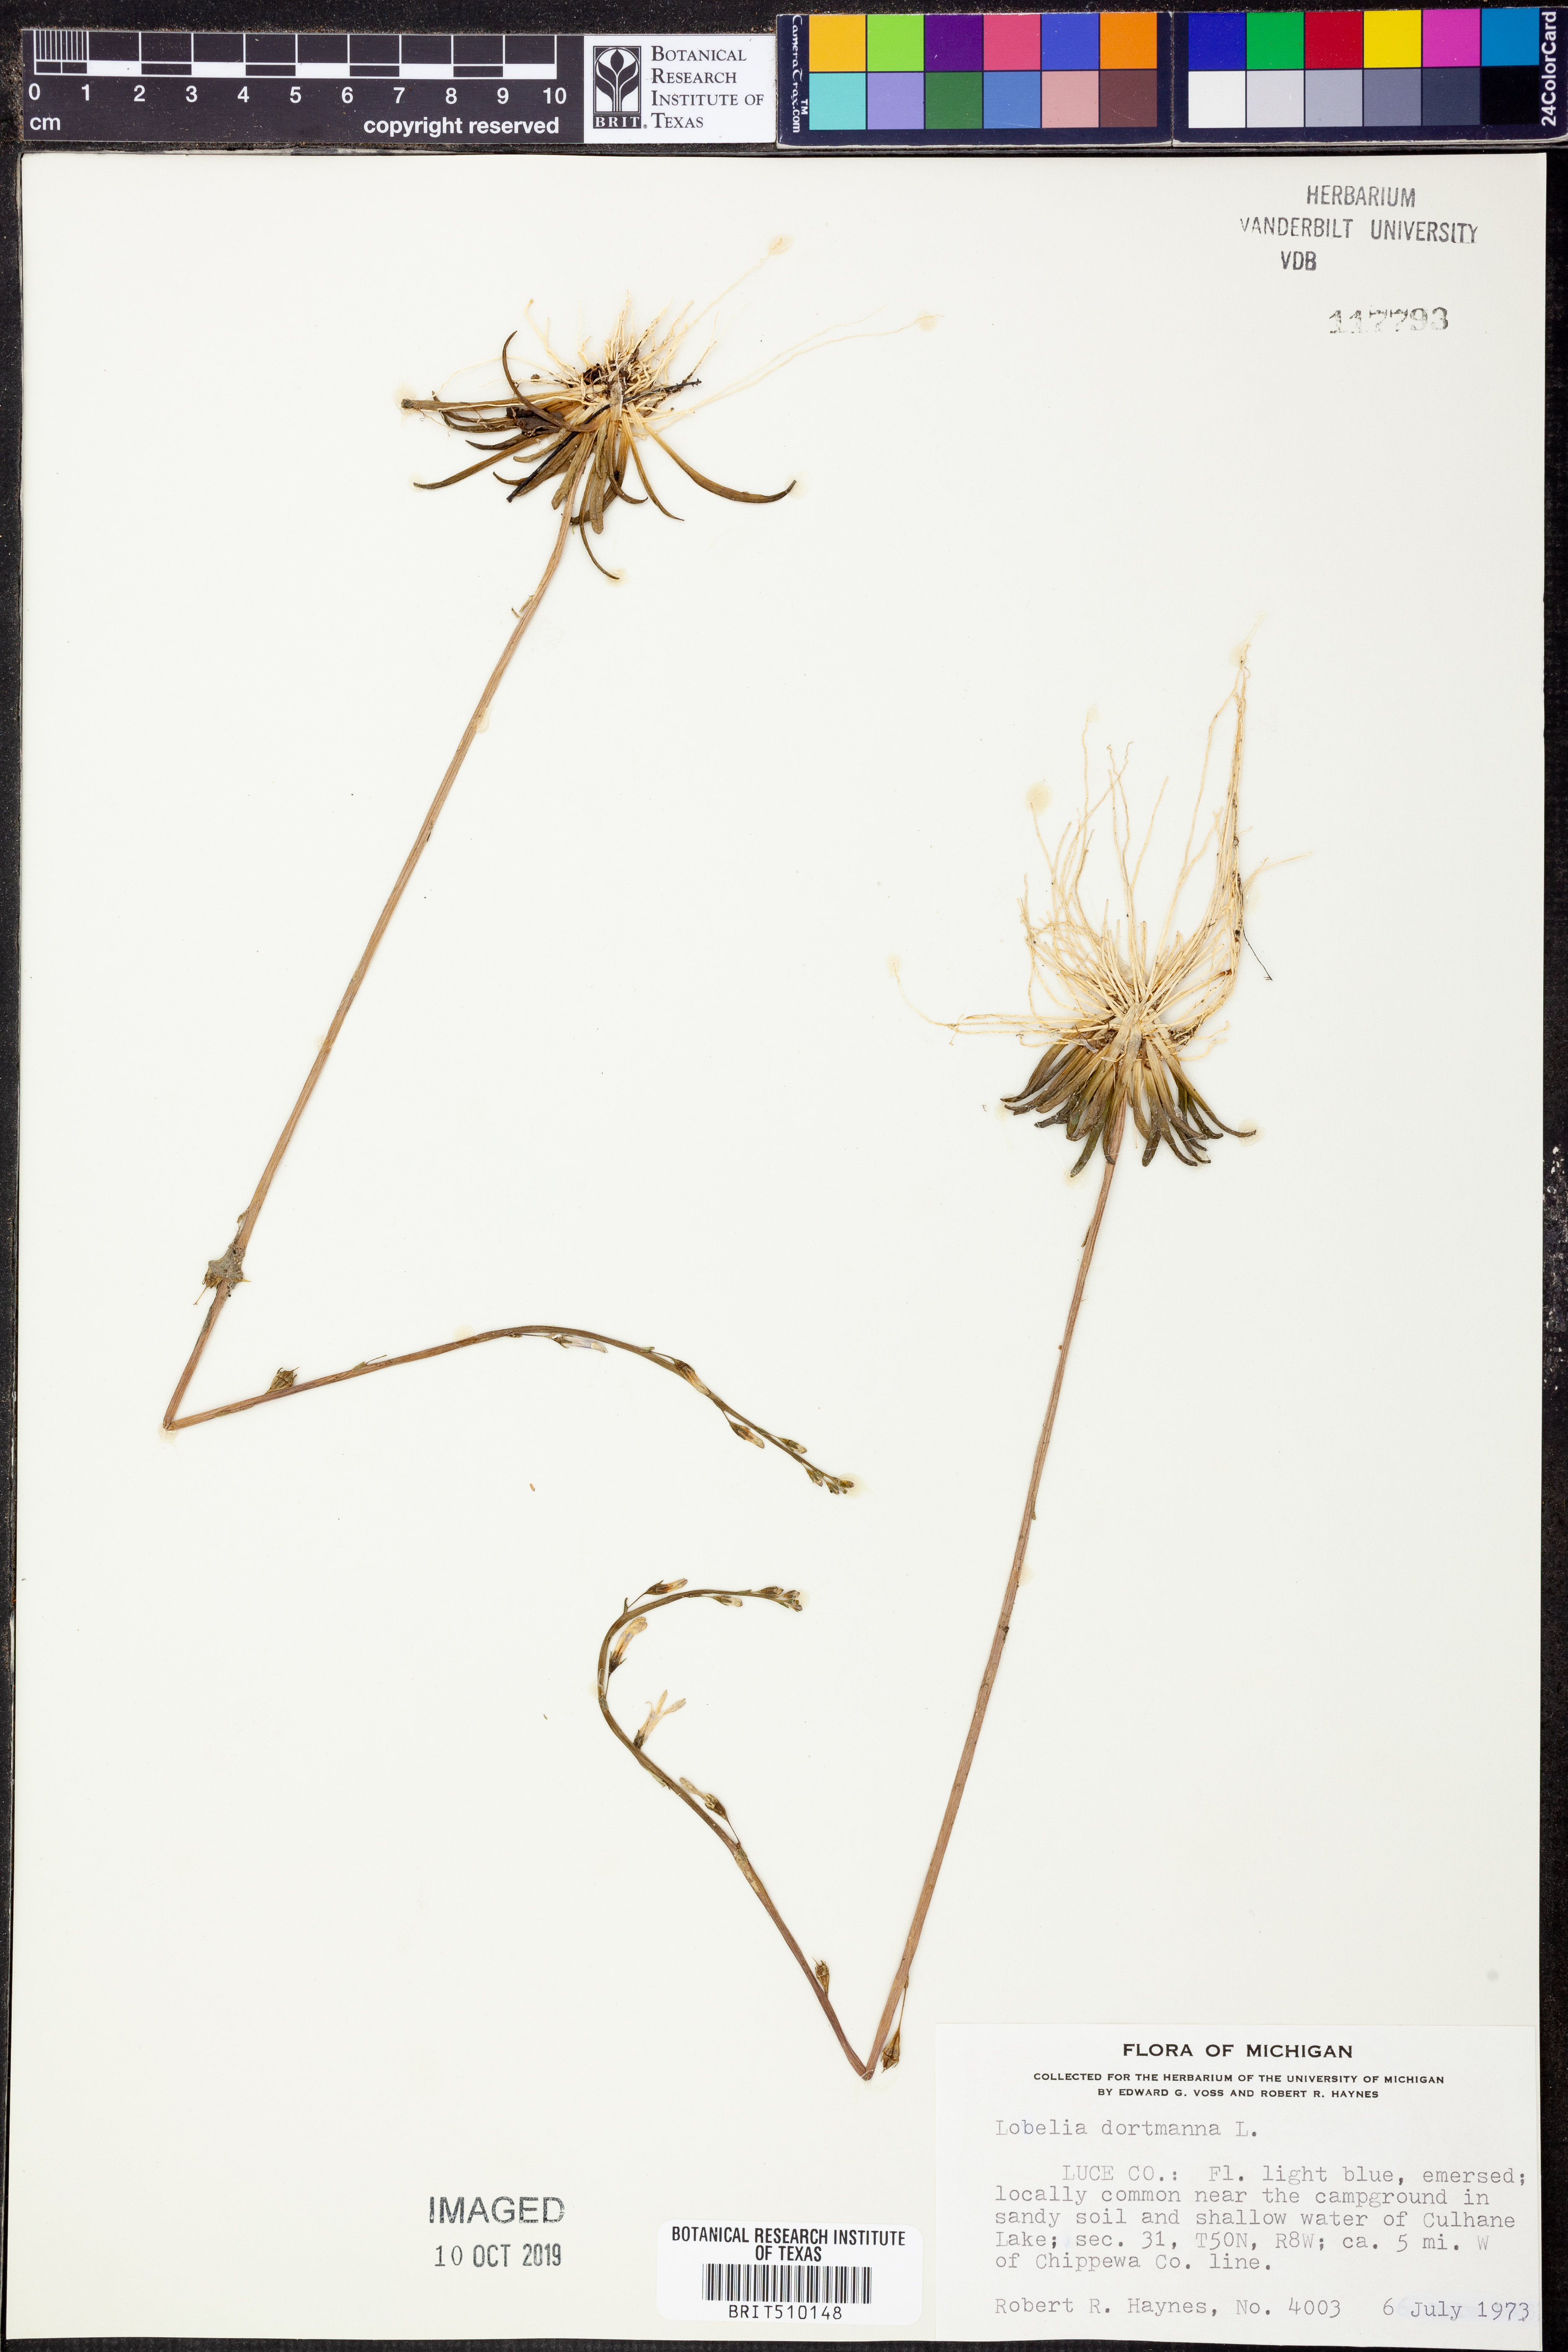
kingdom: Plantae
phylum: Tracheophyta
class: Magnoliopsida
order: Asterales
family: Campanulaceae
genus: Lobelia
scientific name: Lobelia dortmanna
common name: Water lobelia
